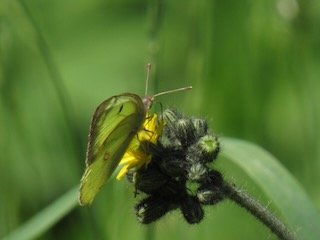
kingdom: Animalia
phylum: Arthropoda
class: Insecta
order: Lepidoptera
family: Pieridae
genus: Colias
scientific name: Colias philodice
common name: Clouded Sulphur
